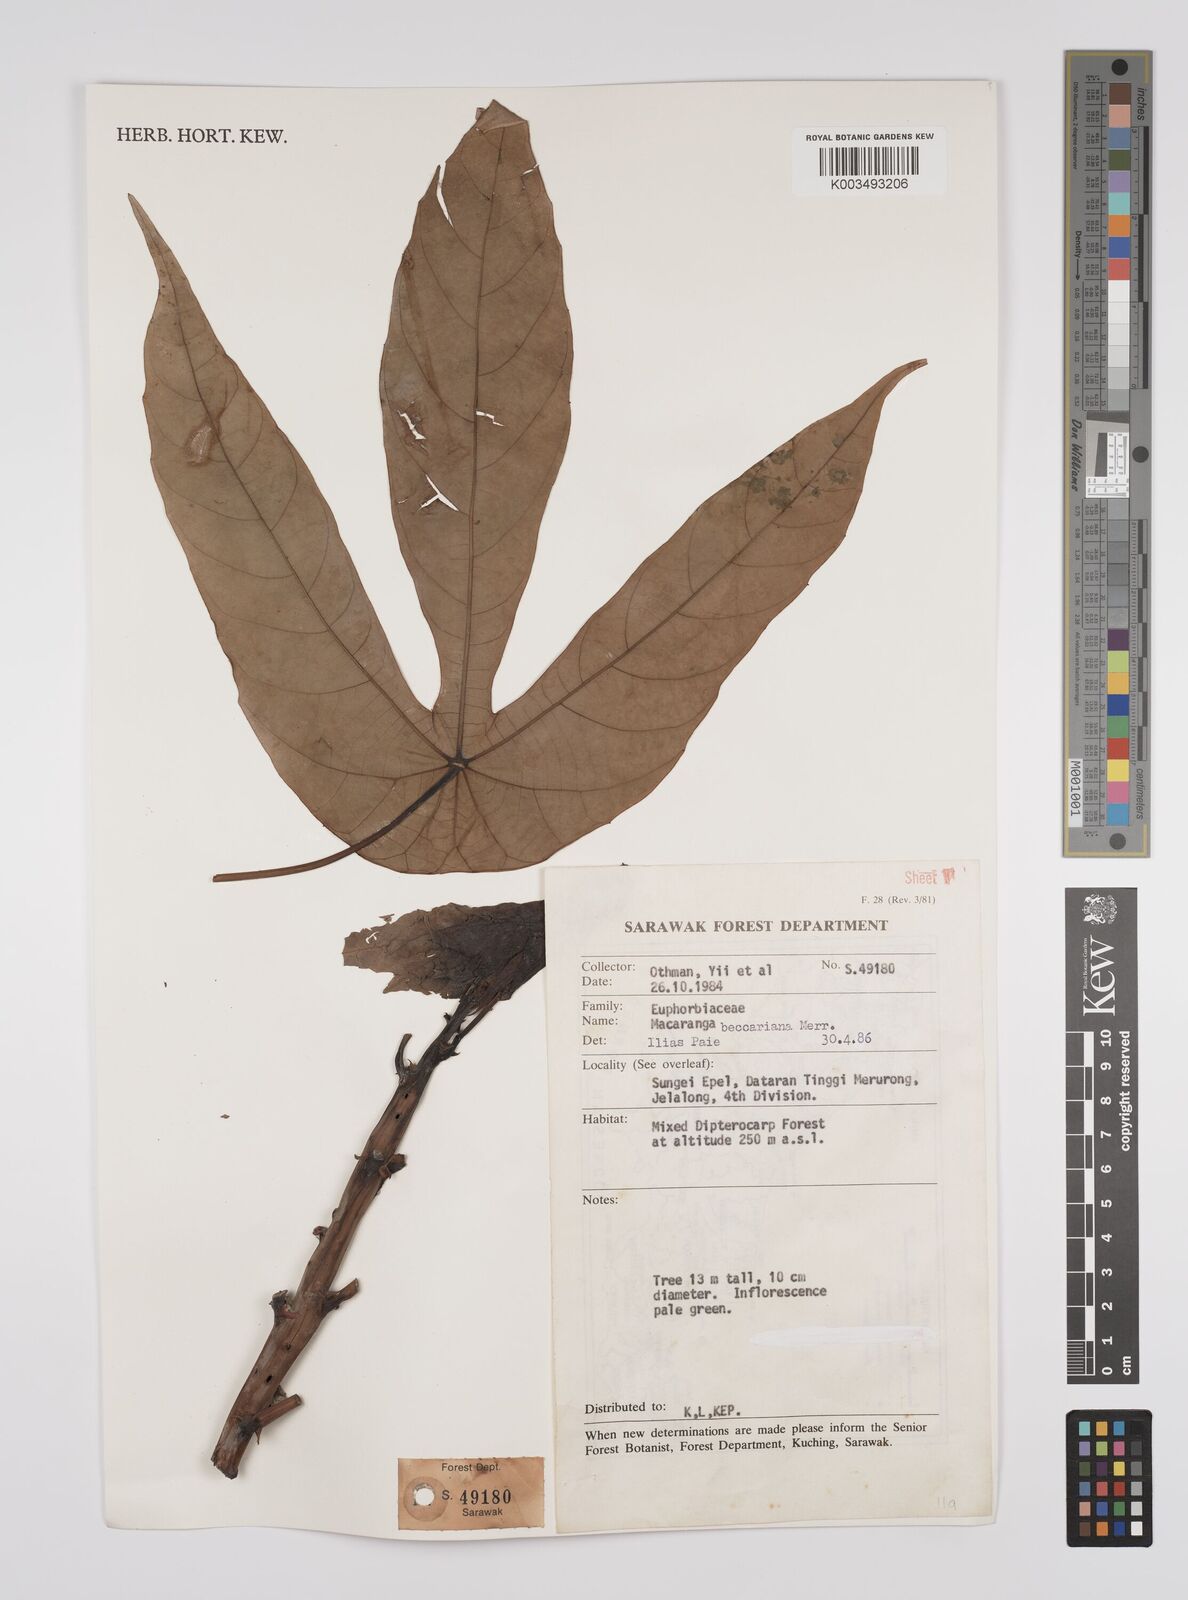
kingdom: Plantae
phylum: Tracheophyta
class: Magnoliopsida
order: Malpighiales
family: Euphorbiaceae
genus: Macaranga
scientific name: Macaranga beccariana
